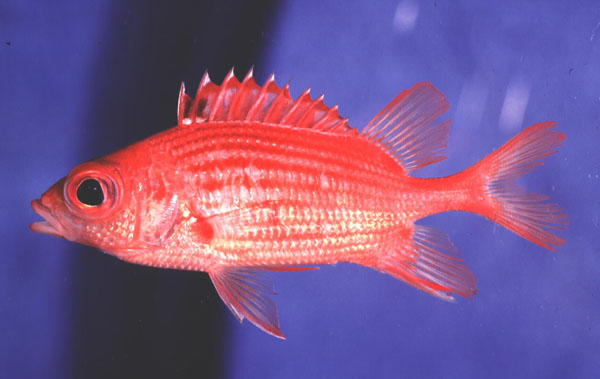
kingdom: Animalia
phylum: Chordata
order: Beryciformes
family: Holocentridae
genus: Sargocentron
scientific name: Sargocentron ittodai
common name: Samurai squirrelfish
